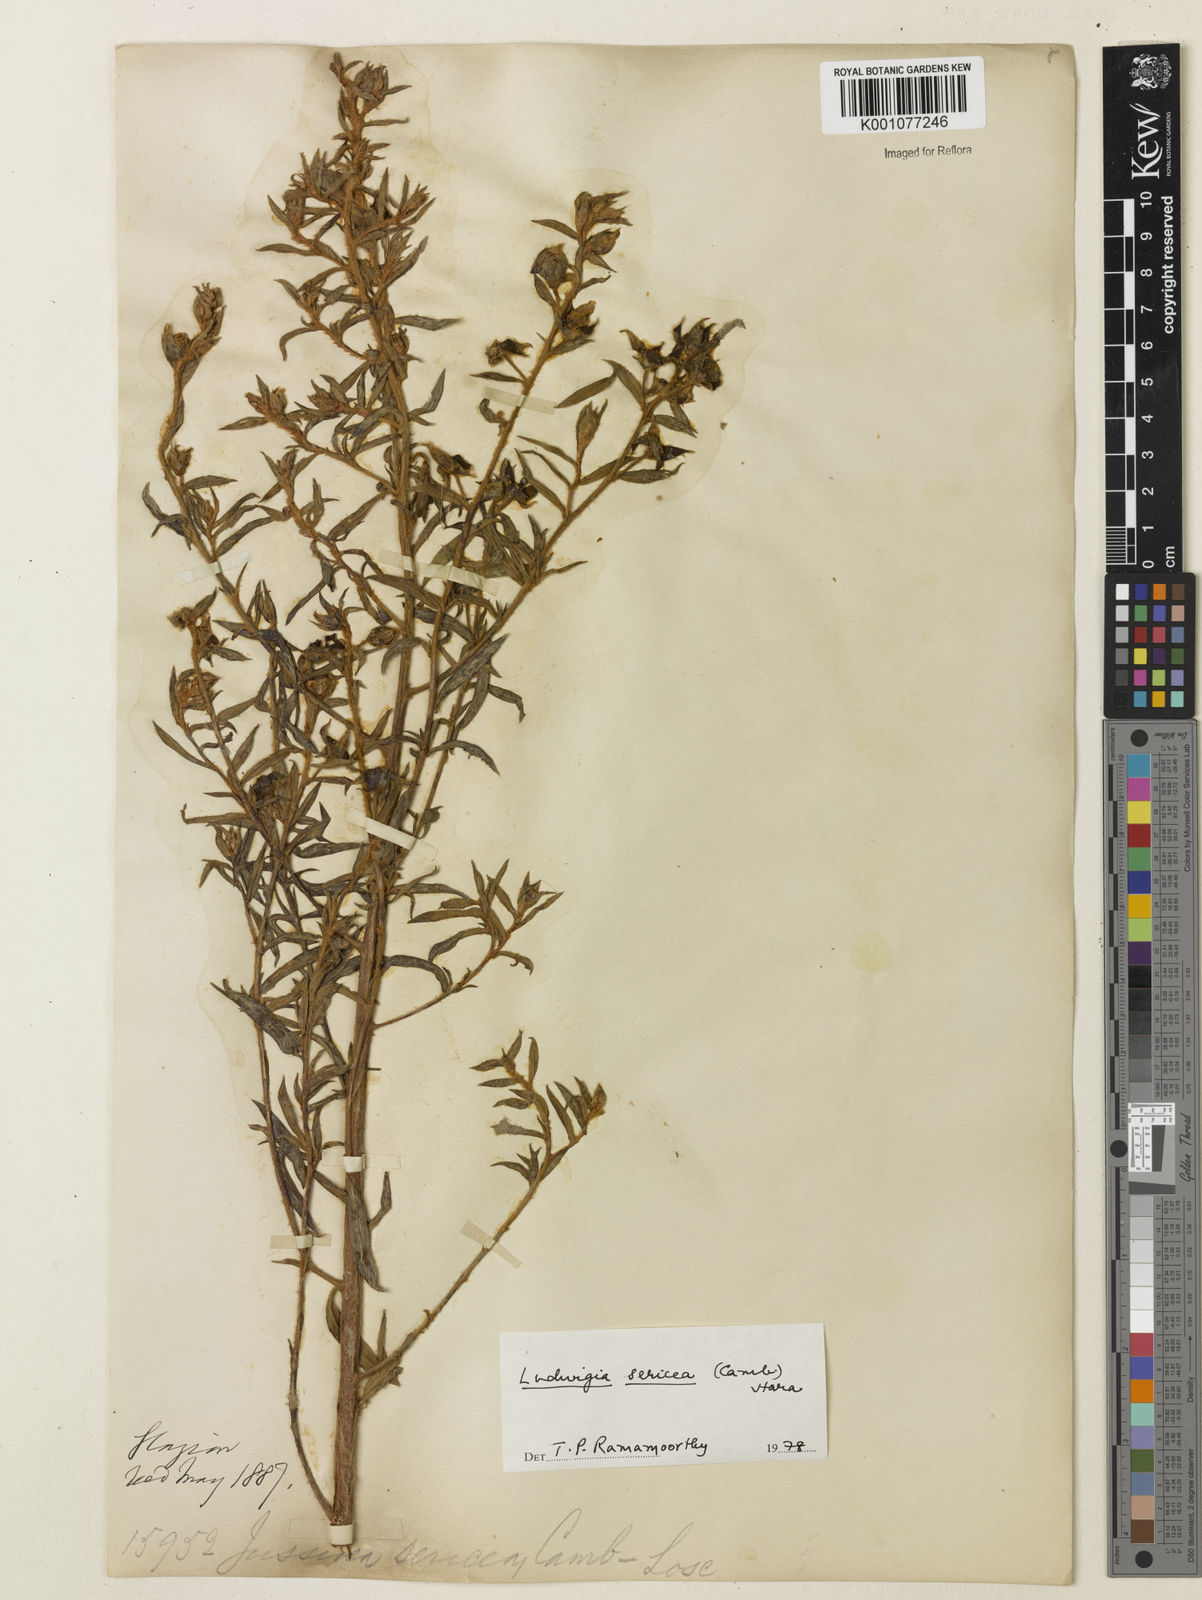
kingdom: Plantae
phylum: Tracheophyta
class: Magnoliopsida
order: Myrtales
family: Onagraceae
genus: Ludwigia
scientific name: Ludwigia sericea
